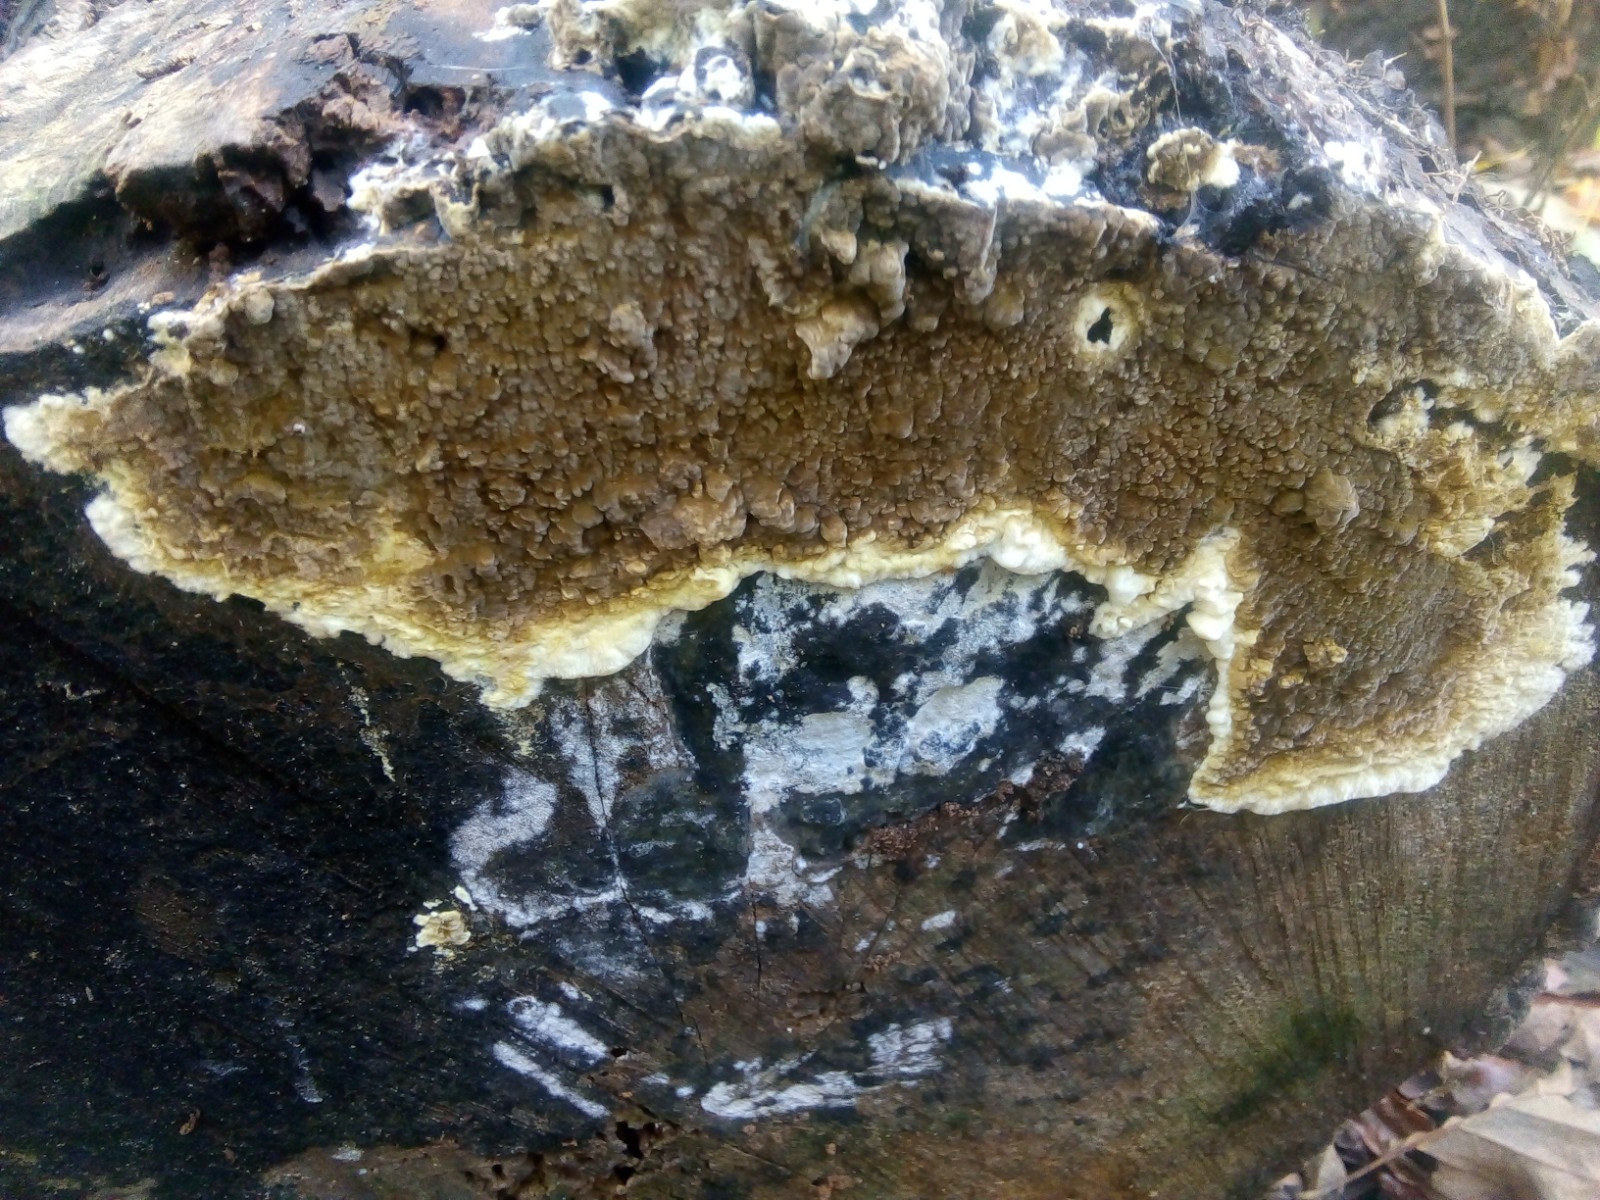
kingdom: Fungi
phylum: Basidiomycota
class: Agaricomycetes
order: Boletales
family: Coniophoraceae
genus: Coniophora
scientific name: Coniophora puteana
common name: gul tømmersvamp
